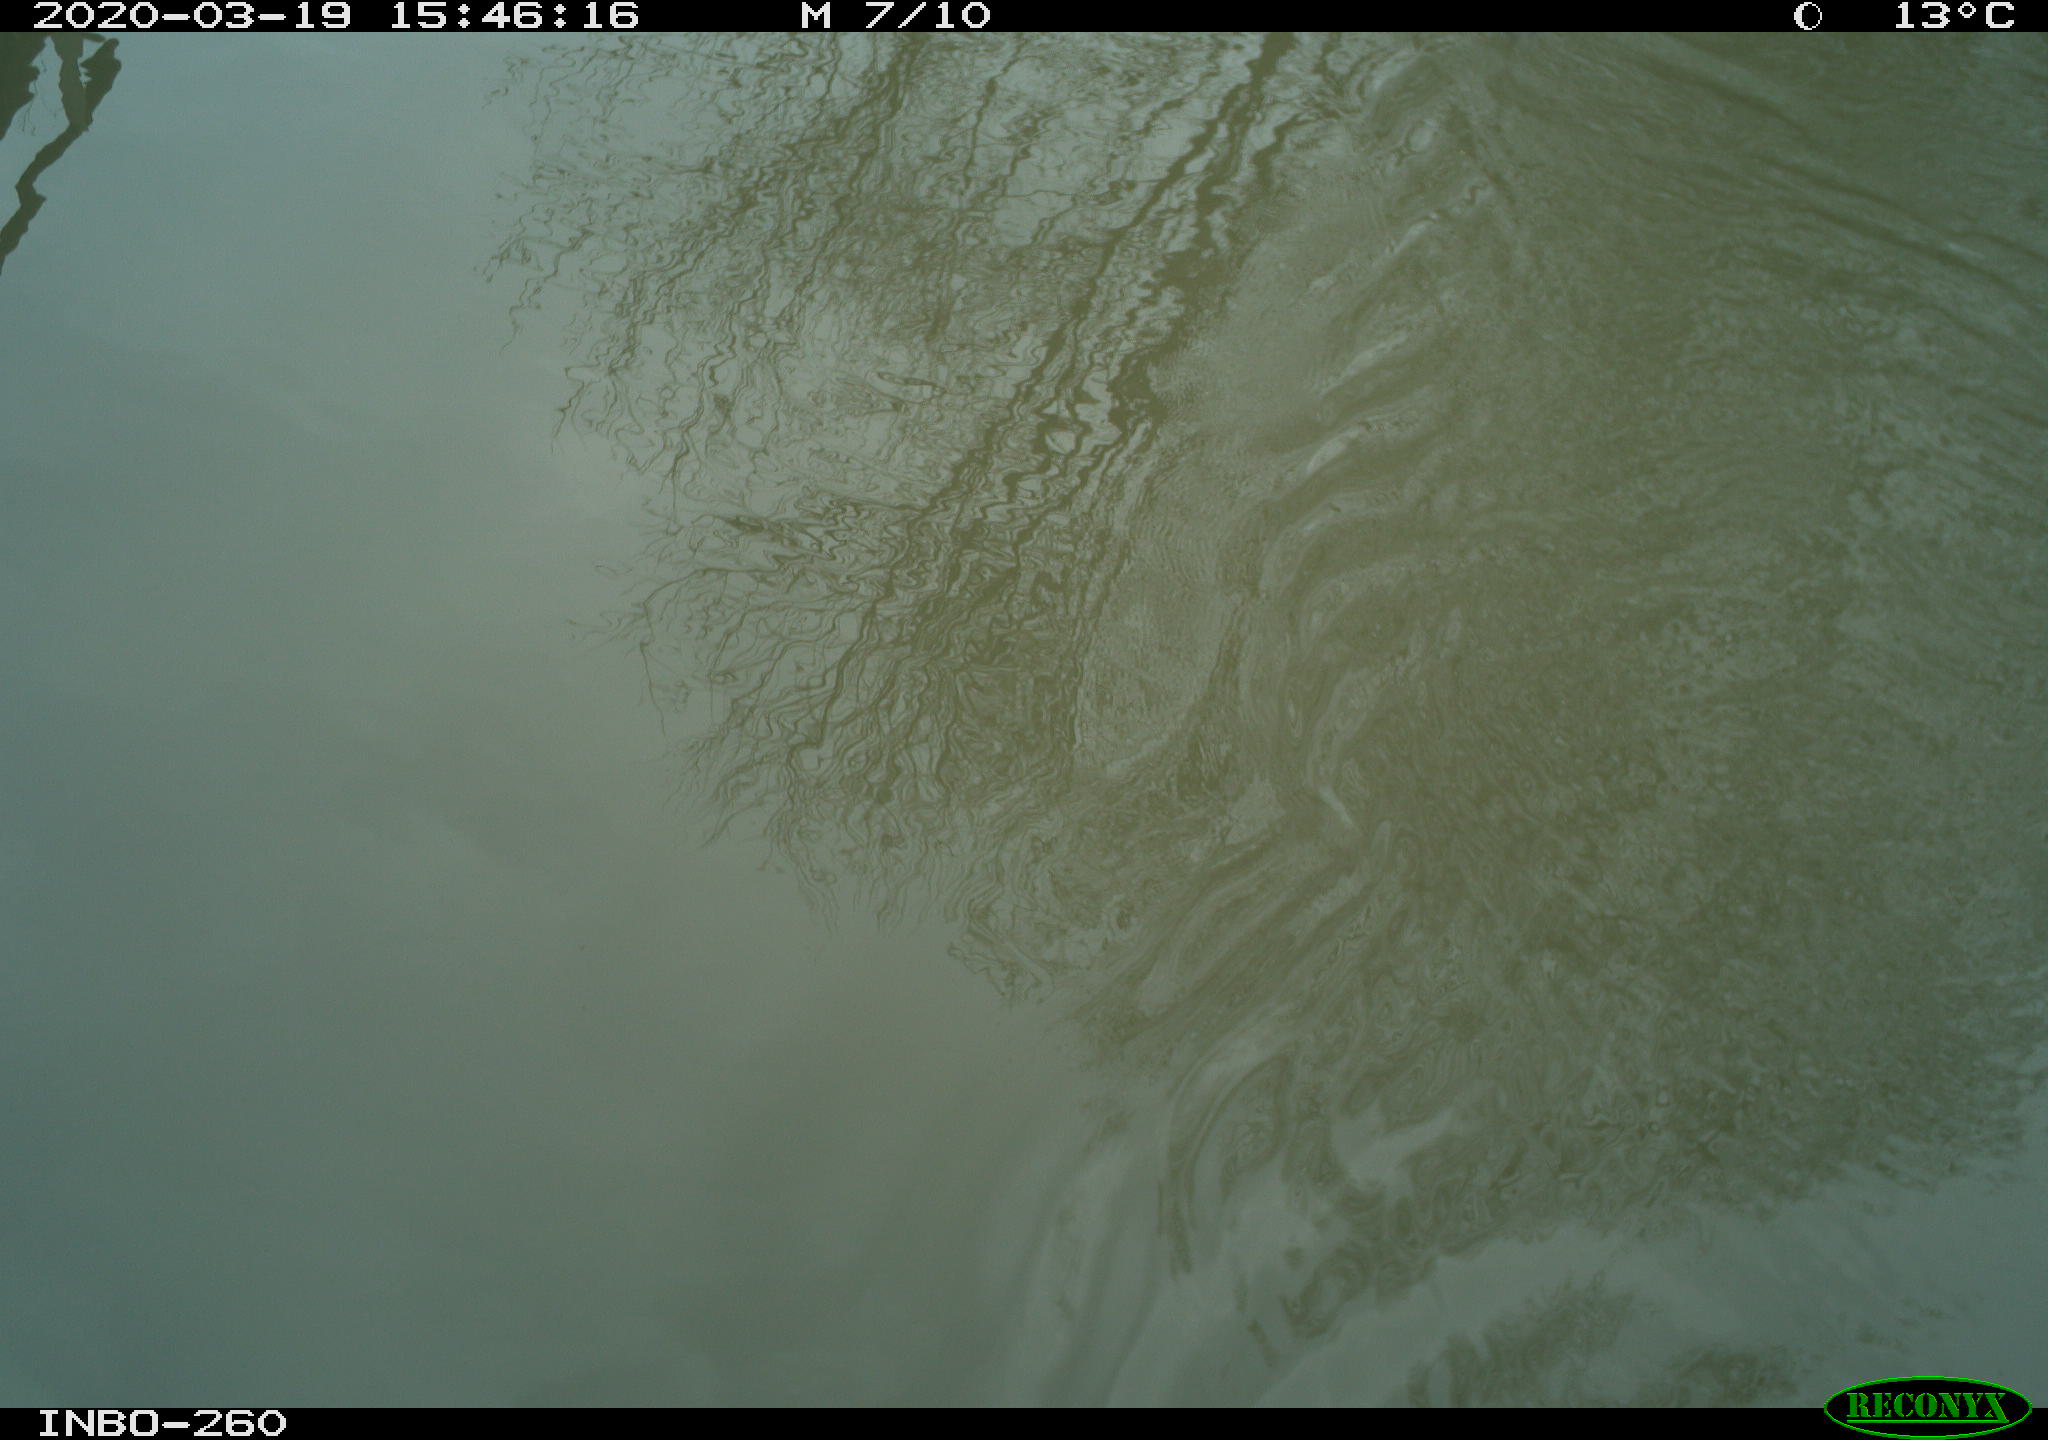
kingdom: Animalia
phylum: Chordata
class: Aves
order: Gruiformes
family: Rallidae
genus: Fulica
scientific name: Fulica atra
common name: Eurasian coot
